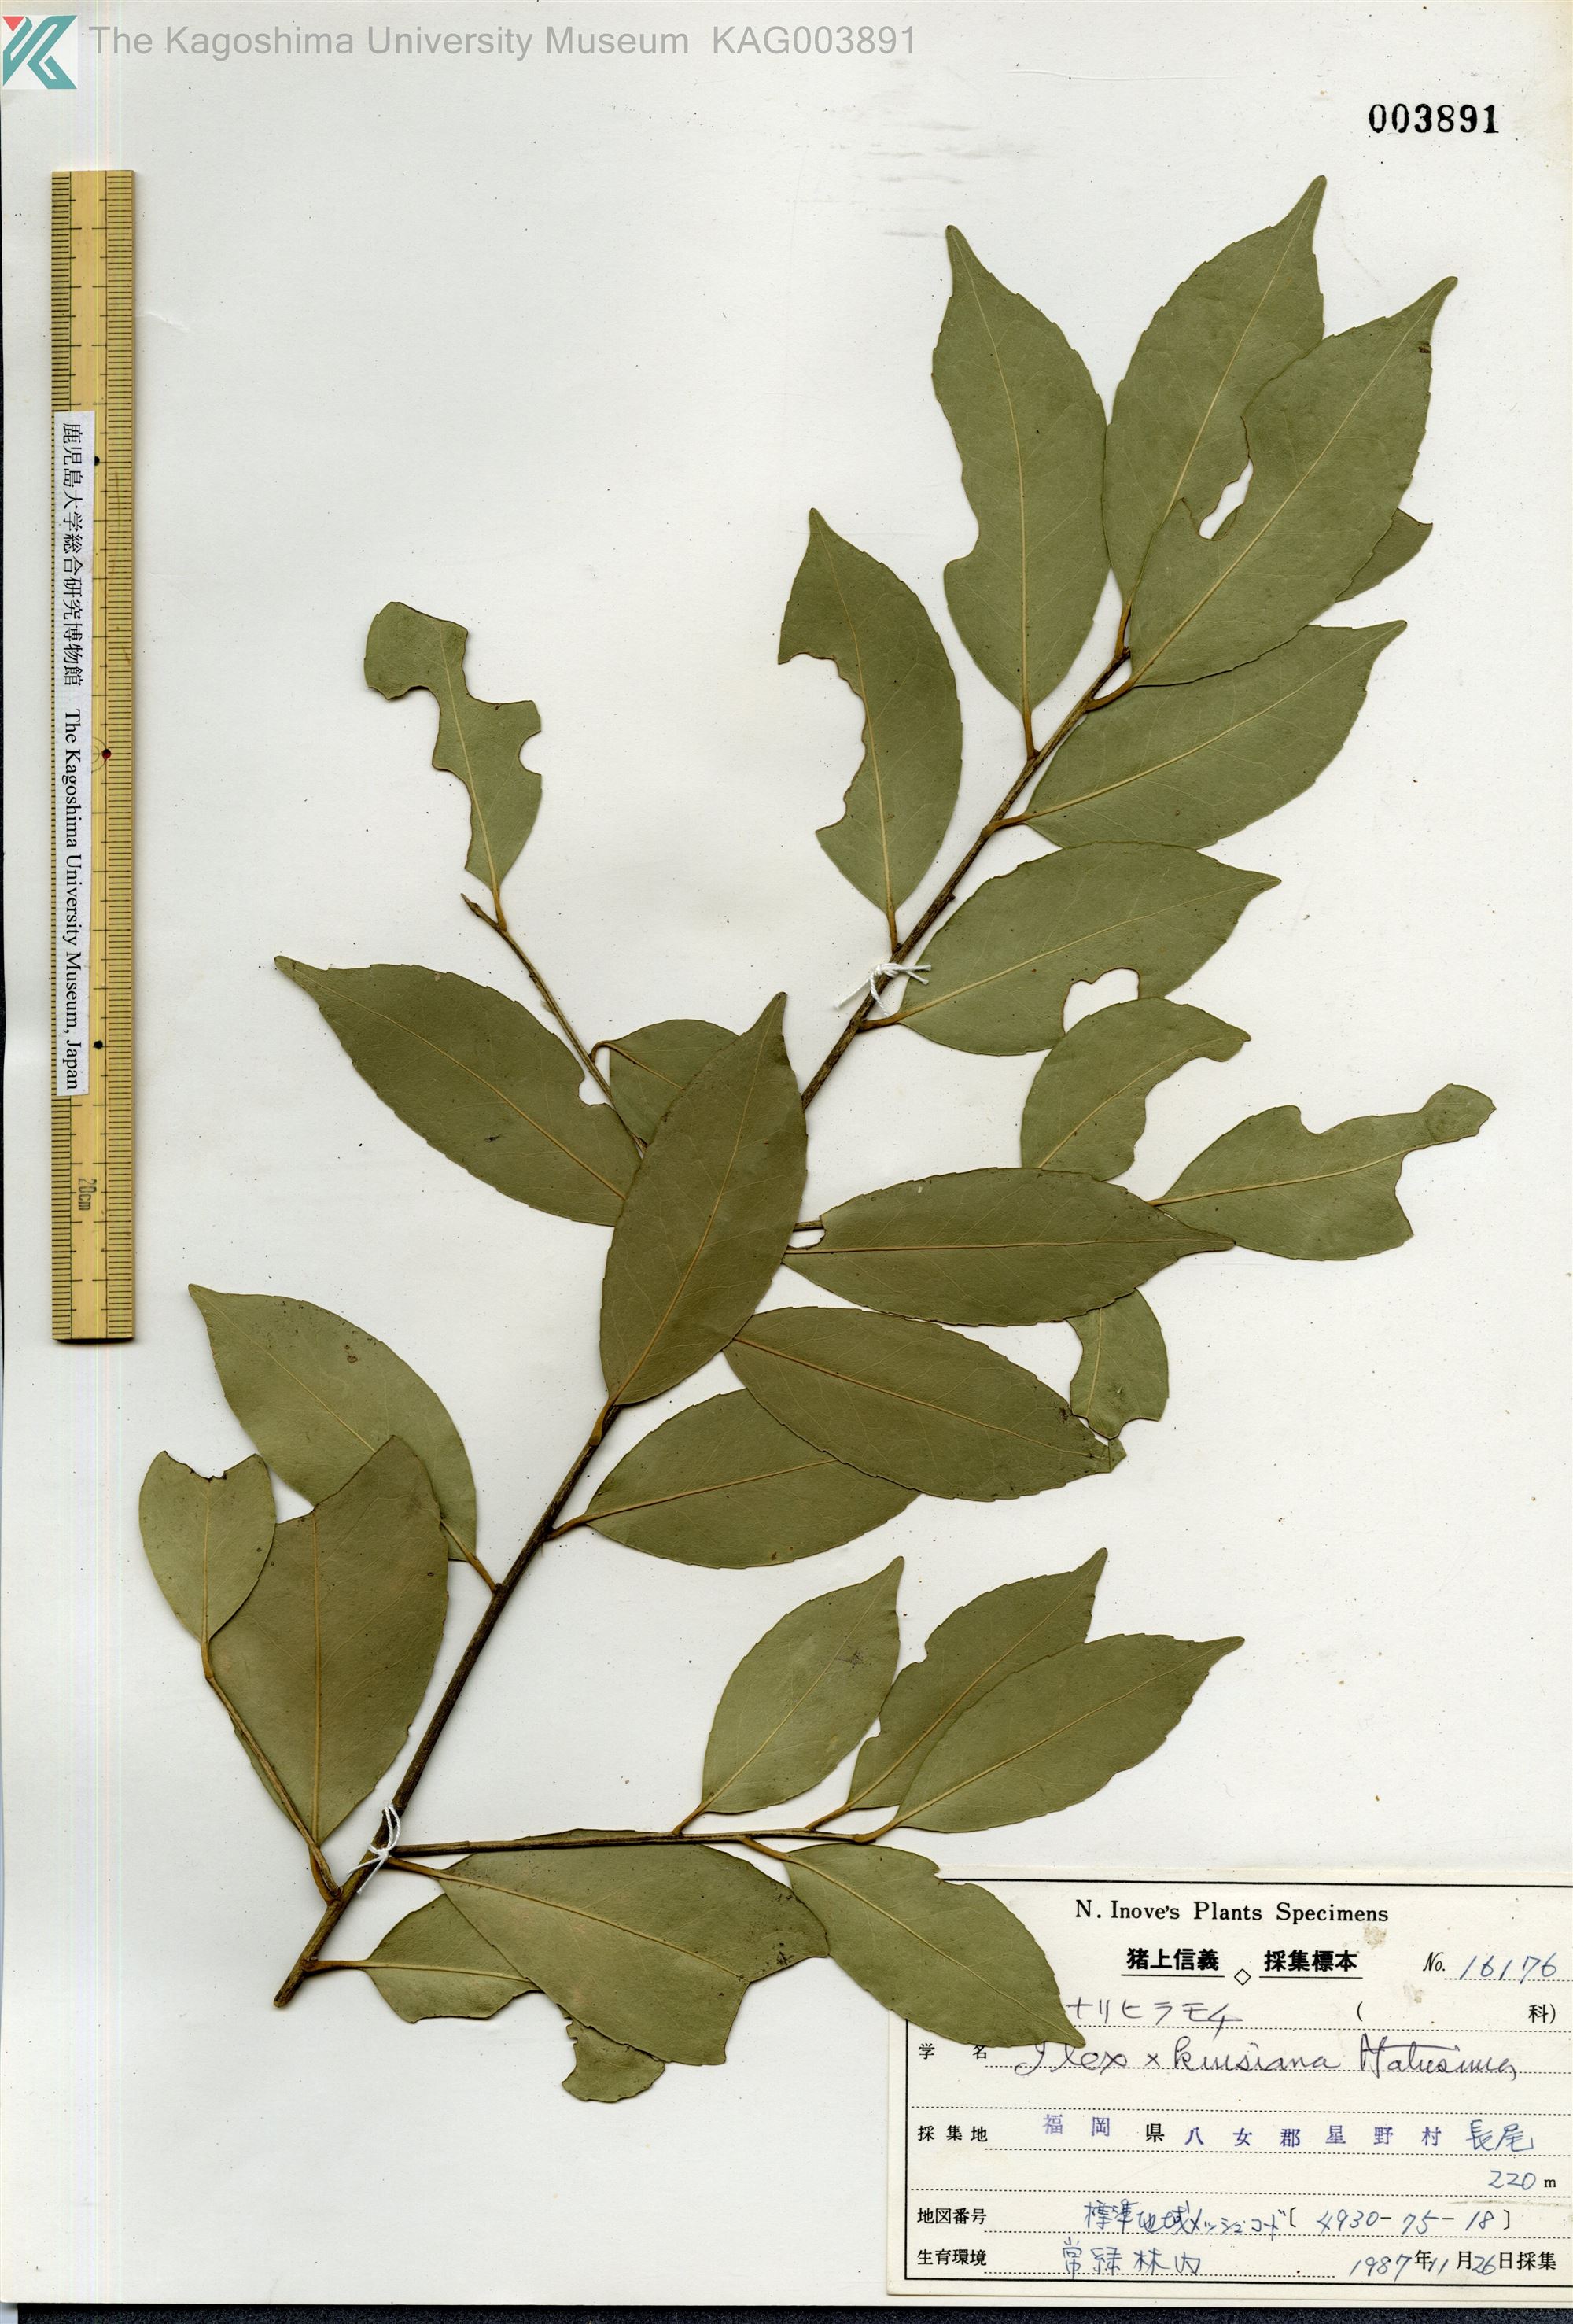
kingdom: Plantae
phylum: Tracheophyta
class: Magnoliopsida
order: Aquifoliales
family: Aquifoliaceae
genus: Ilex
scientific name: Ilex kiusiana
